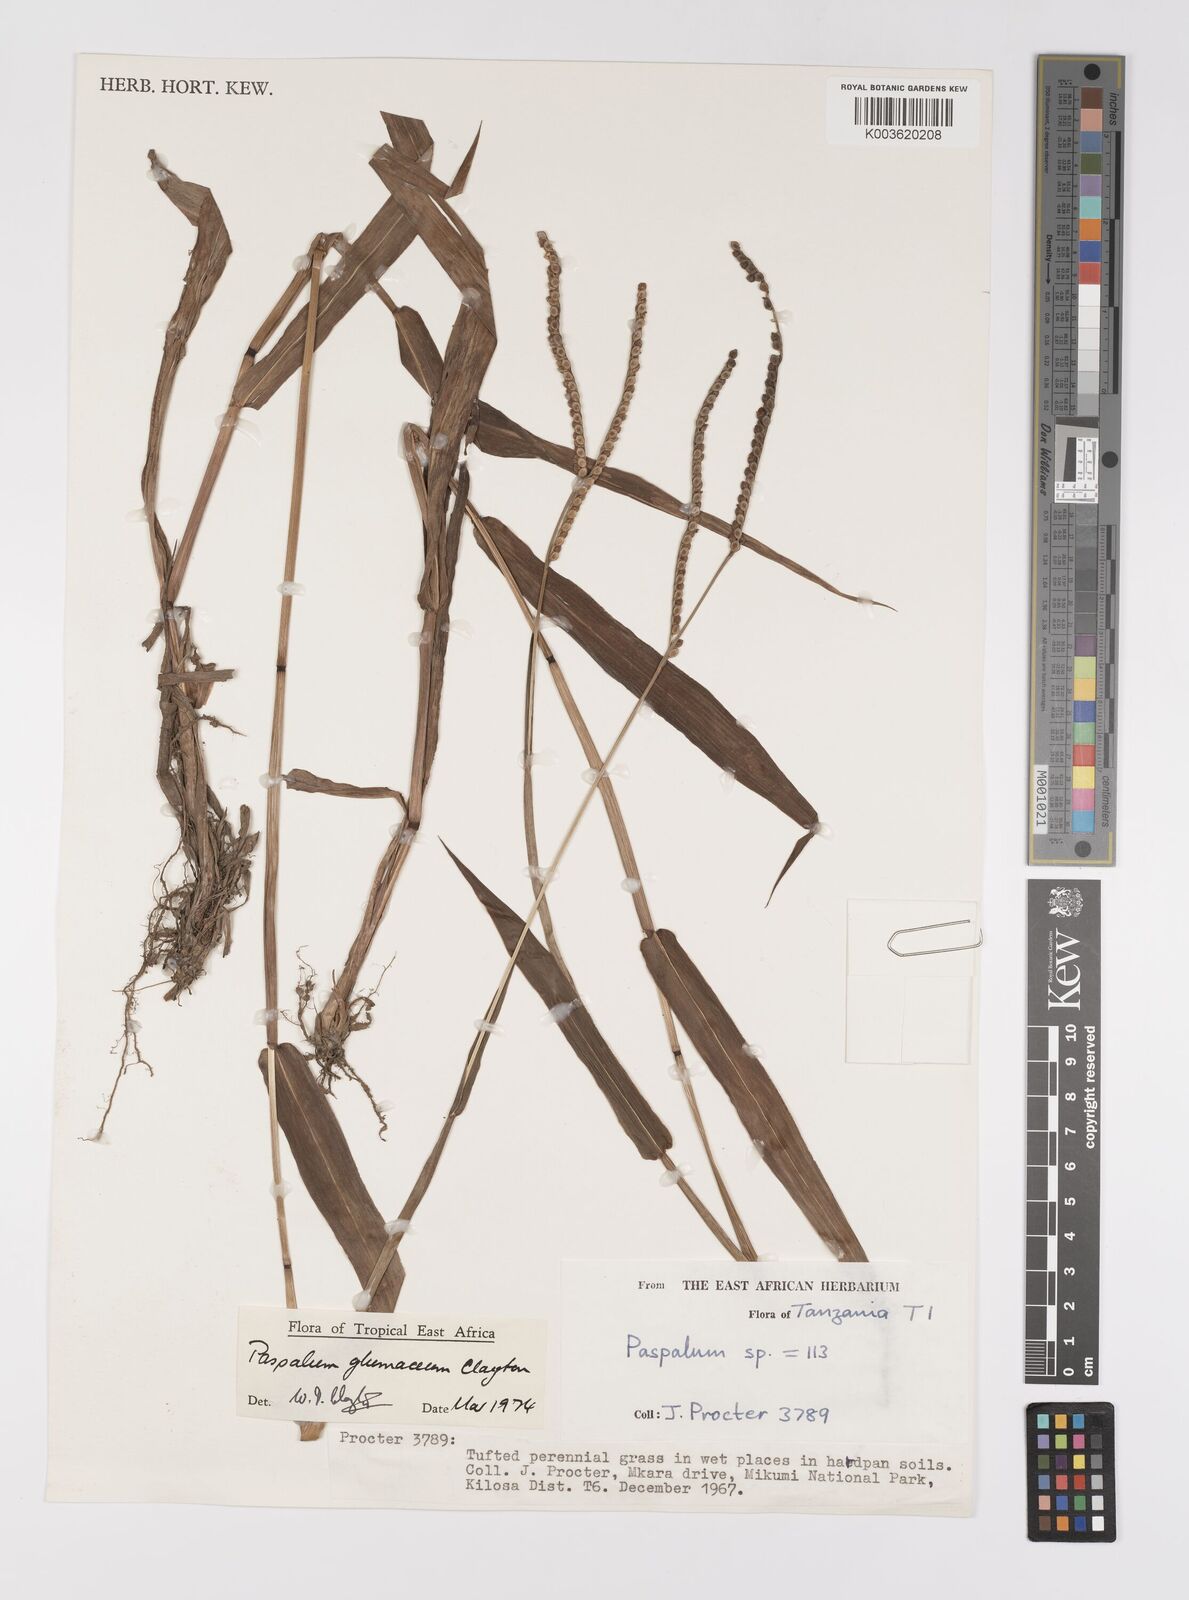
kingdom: Plantae
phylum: Tracheophyta
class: Liliopsida
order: Poales
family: Poaceae
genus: Paspalum
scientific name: Paspalum glumaceum
